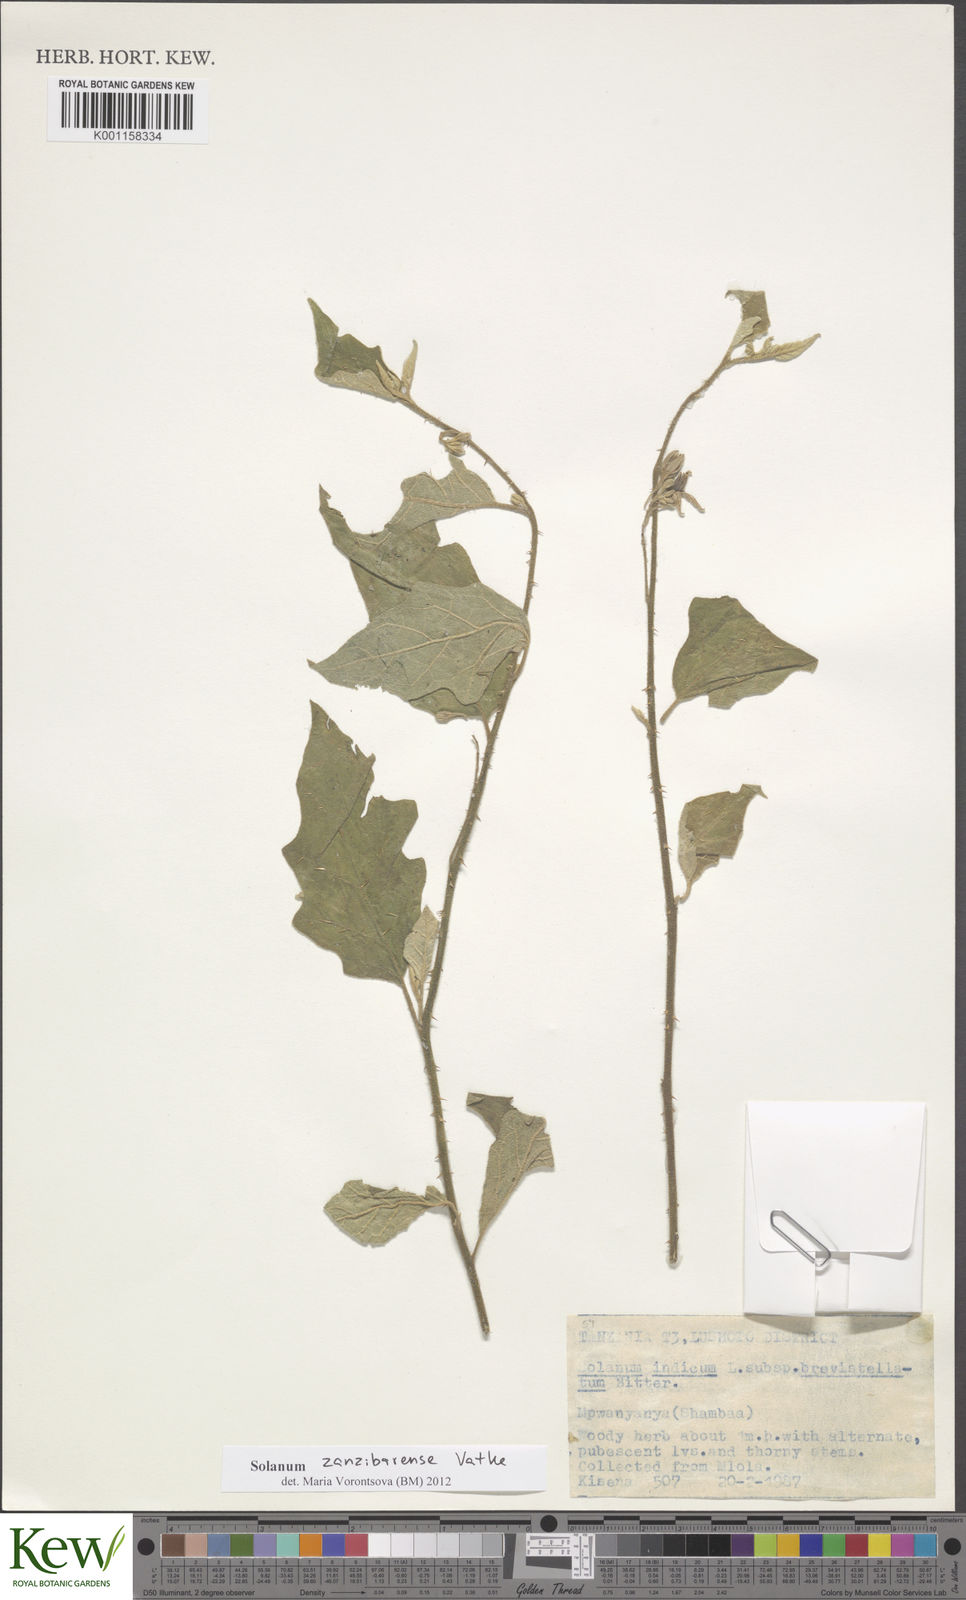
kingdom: Plantae
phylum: Tracheophyta
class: Magnoliopsida
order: Solanales
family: Solanaceae
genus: Solanum
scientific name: Solanum zanzibarense
